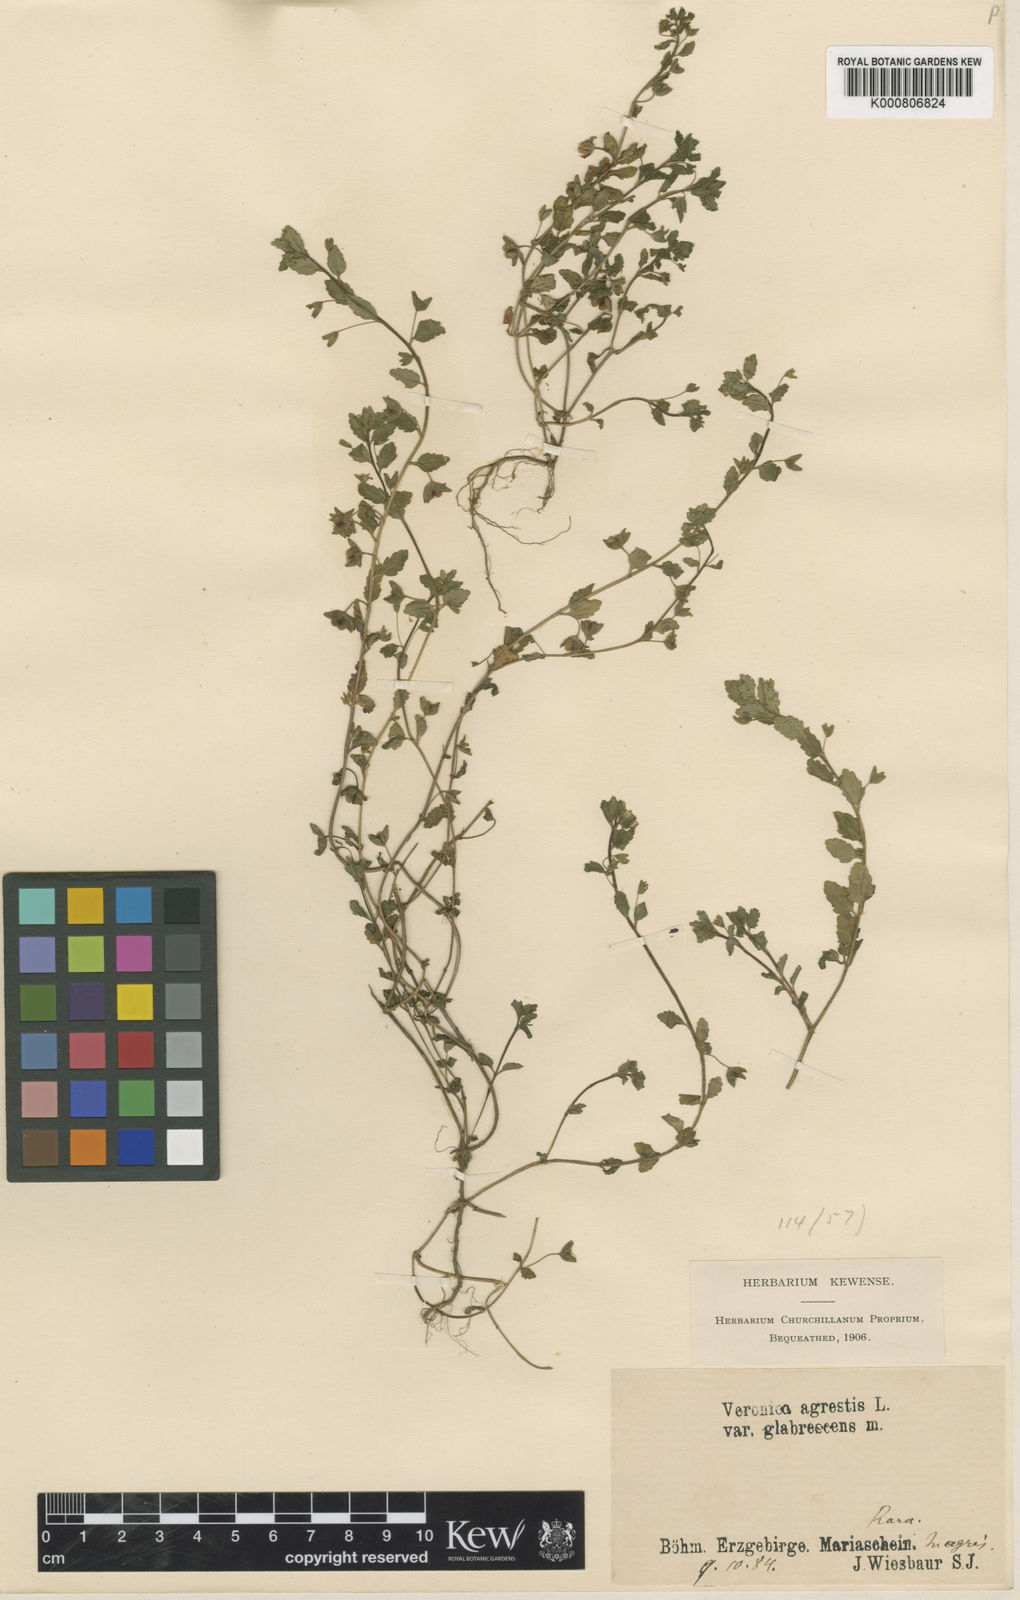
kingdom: Plantae
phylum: Tracheophyta
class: Magnoliopsida
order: Lamiales
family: Plantaginaceae
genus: Veronica
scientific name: Veronica
